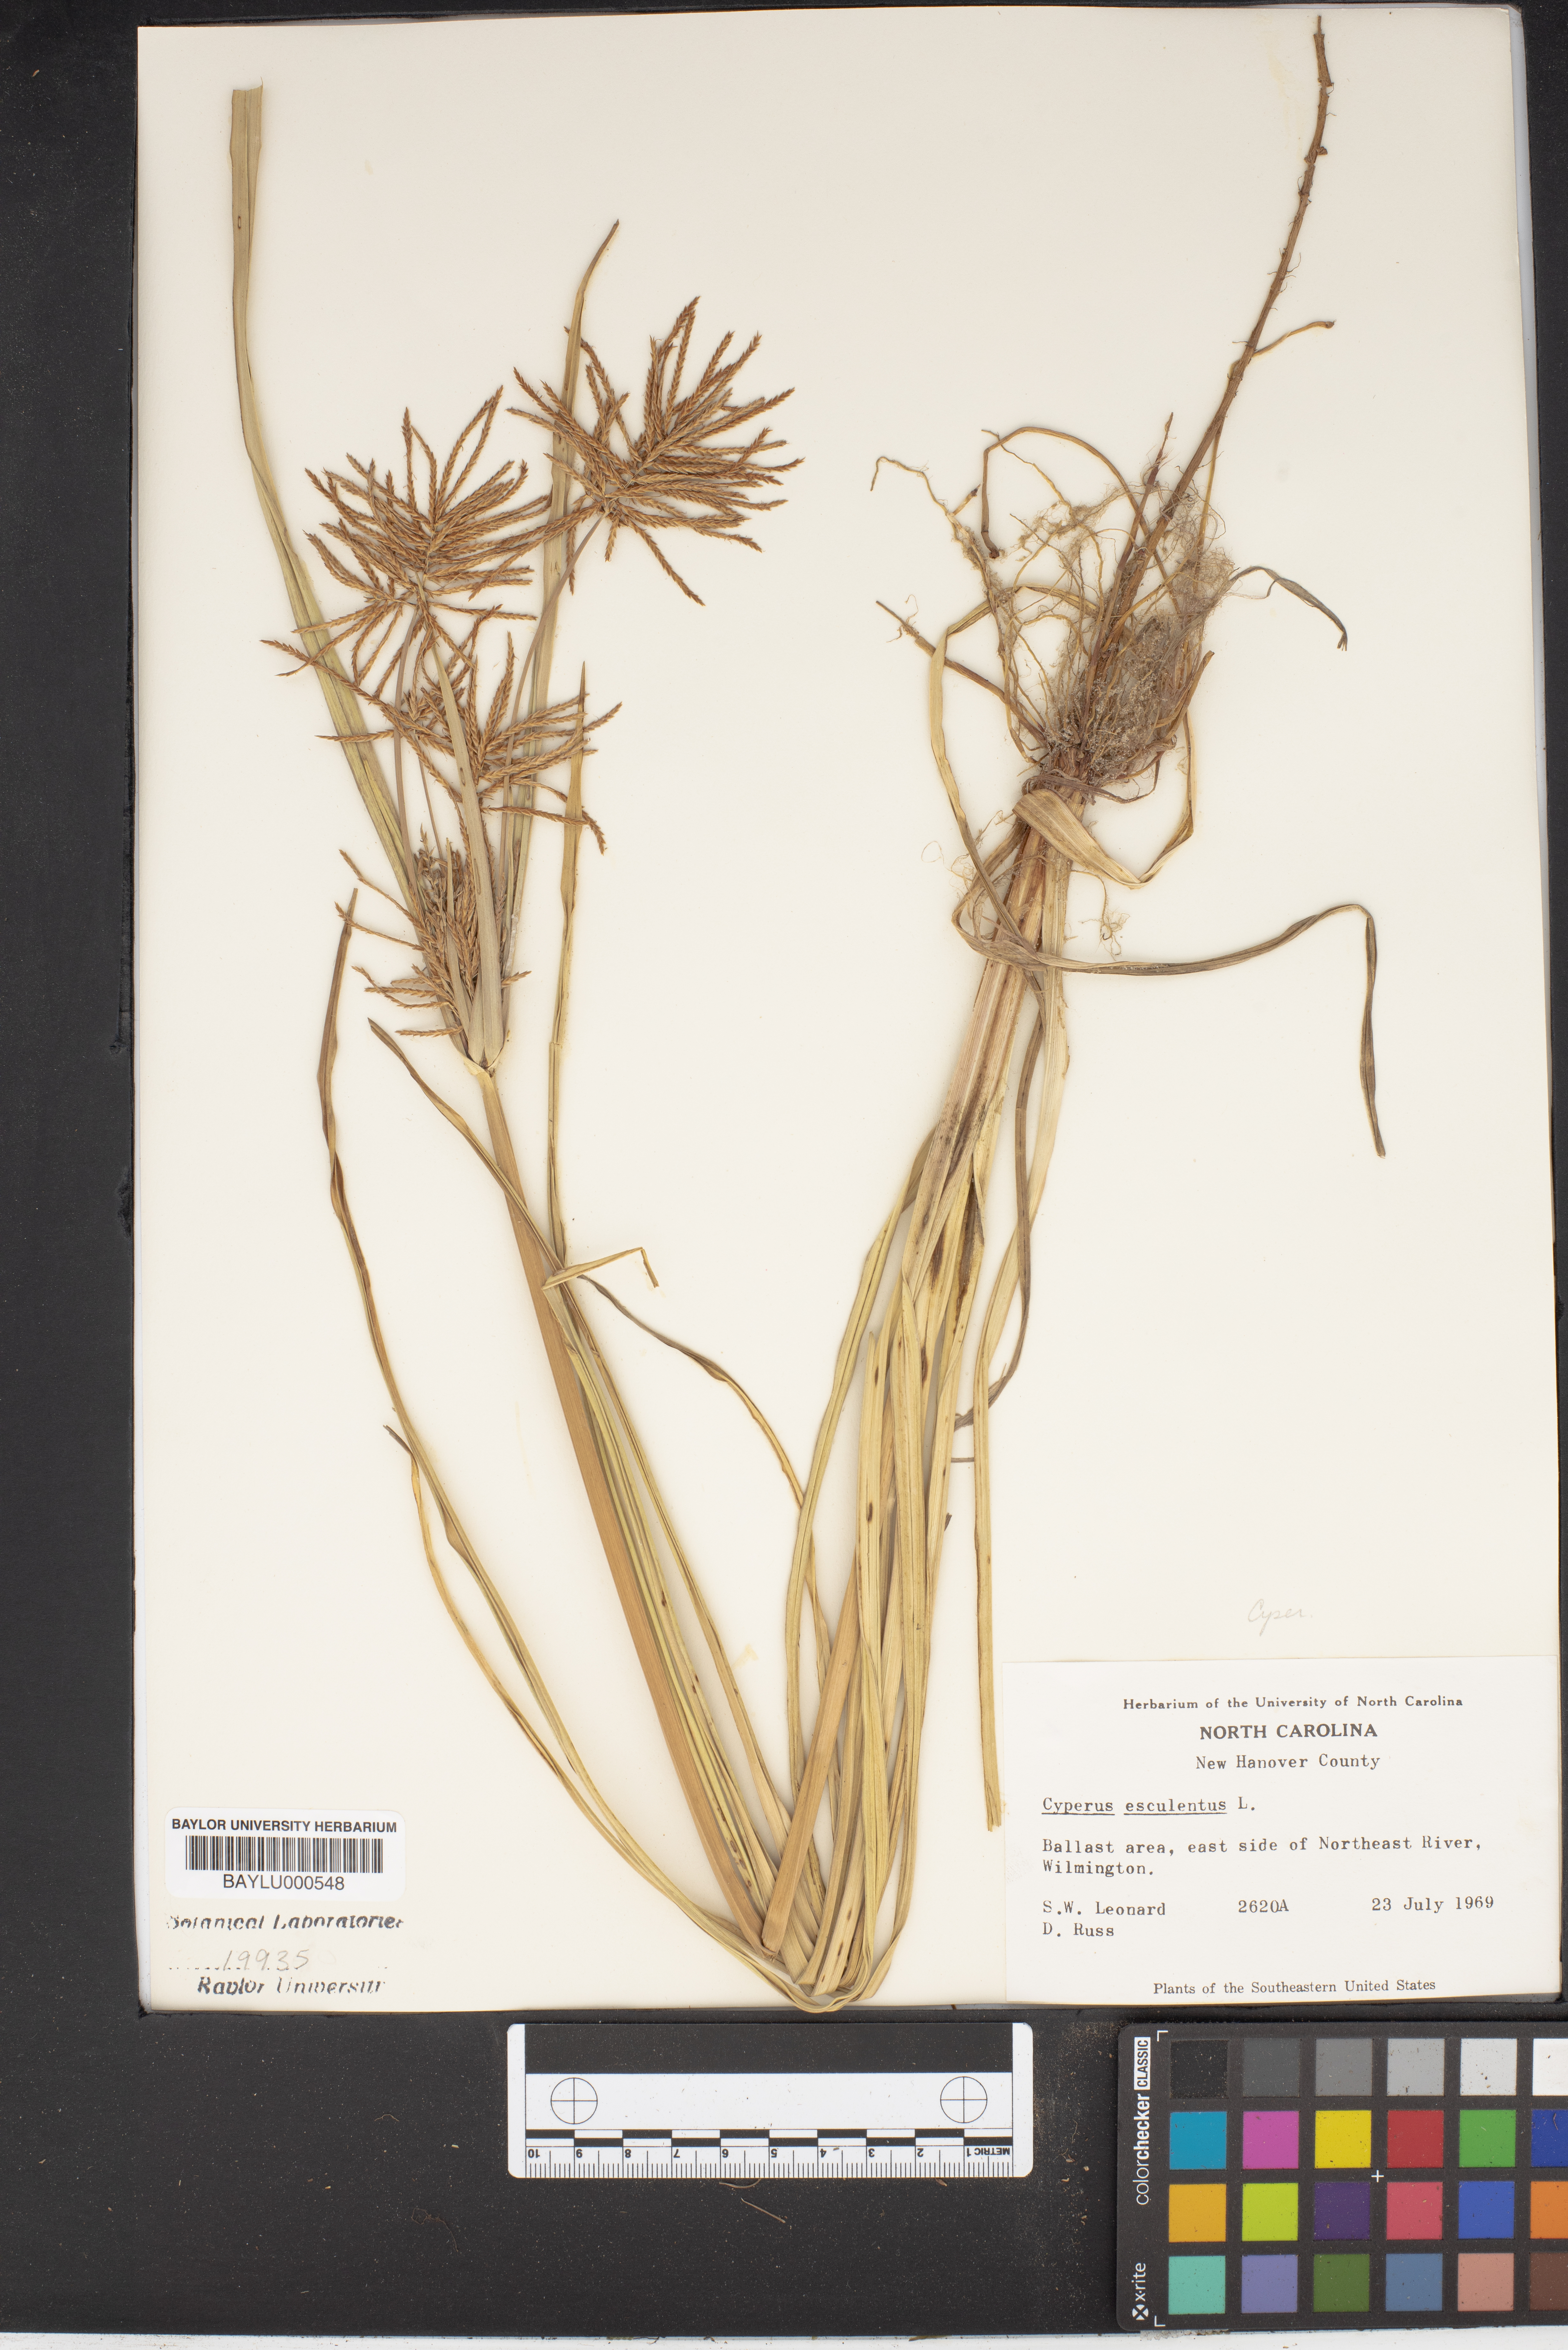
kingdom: Plantae
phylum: Tracheophyta
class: Liliopsida
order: Poales
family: Cyperaceae
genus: Cyperus
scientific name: Cyperus esculentus
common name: Yellow nutsedge
